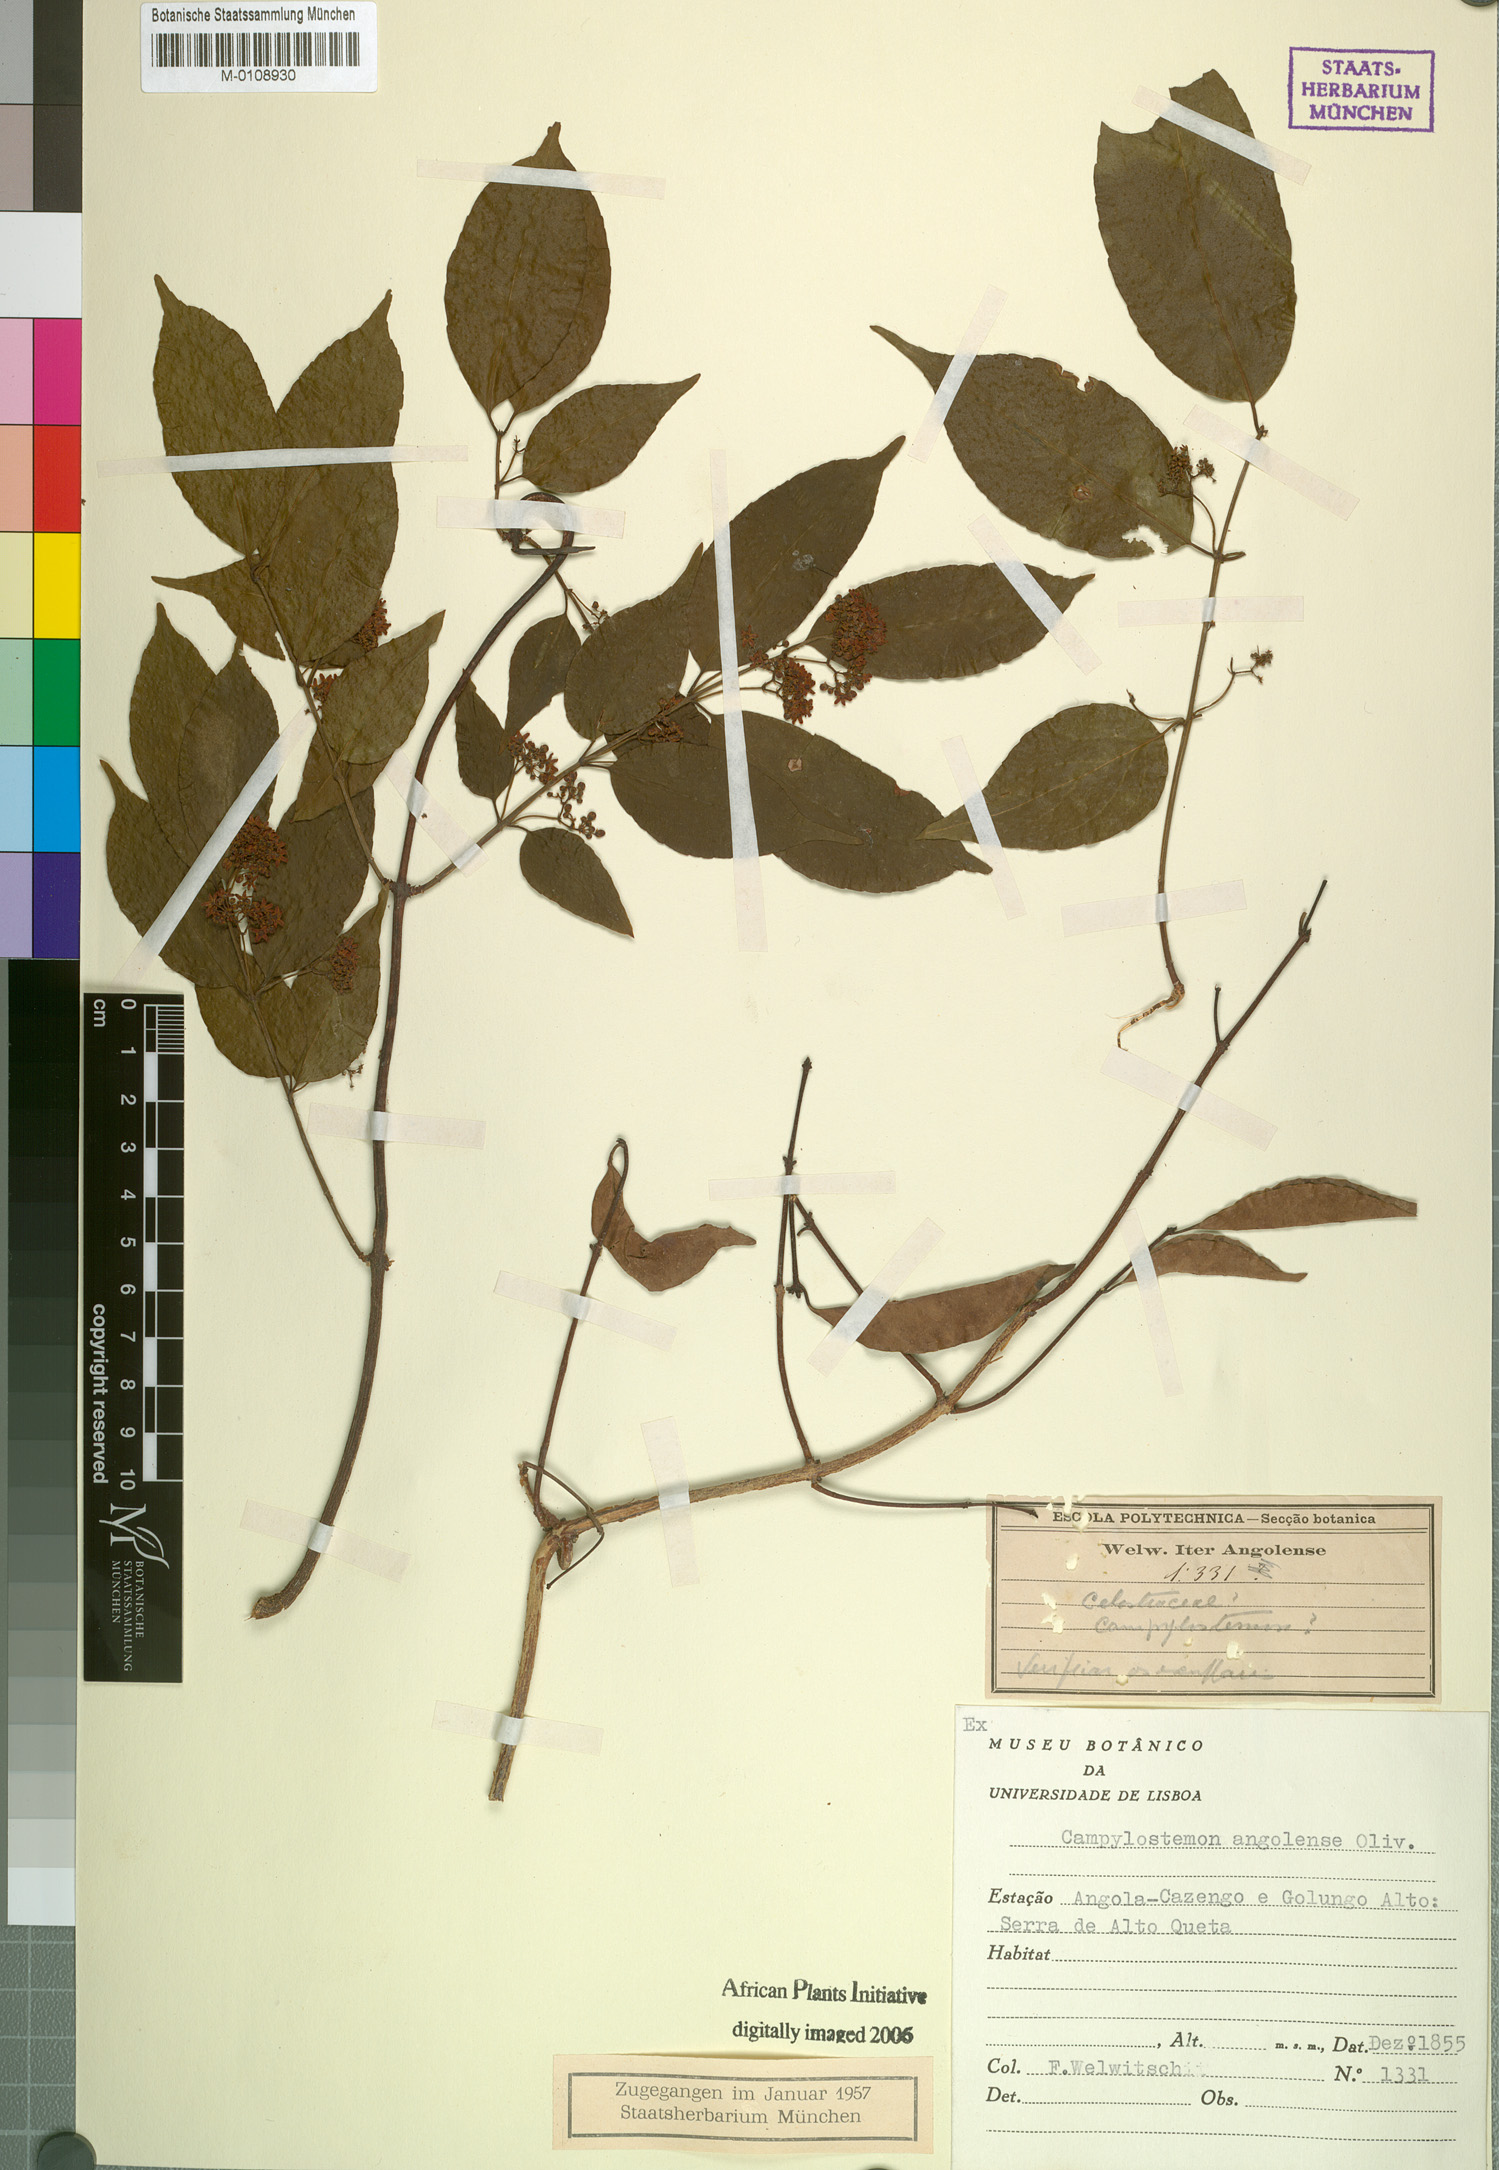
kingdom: Plantae
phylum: Tracheophyta
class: Magnoliopsida
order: Celastrales
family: Celastraceae
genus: Campylostemon
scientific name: Campylostemon angolense
